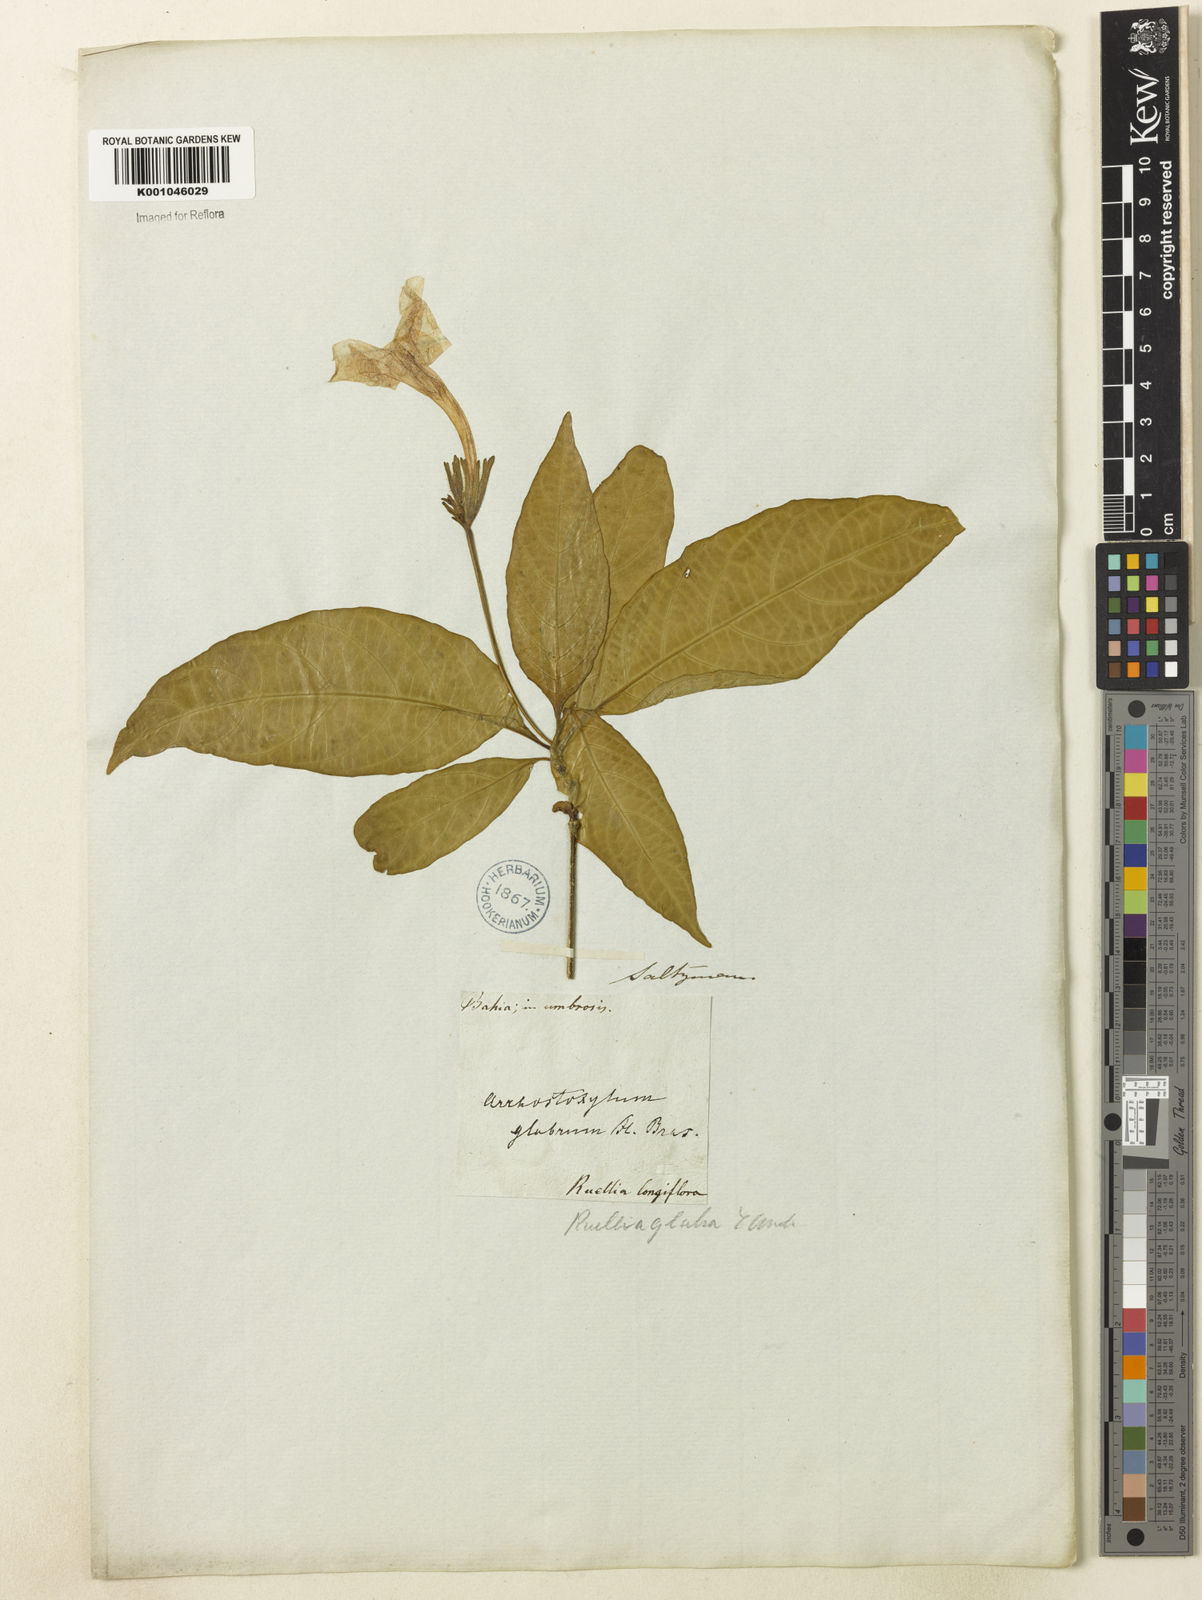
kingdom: Plantae
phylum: Tracheophyta
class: Magnoliopsida
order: Lamiales
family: Acanthaceae
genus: Ruellia
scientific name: Ruellia
